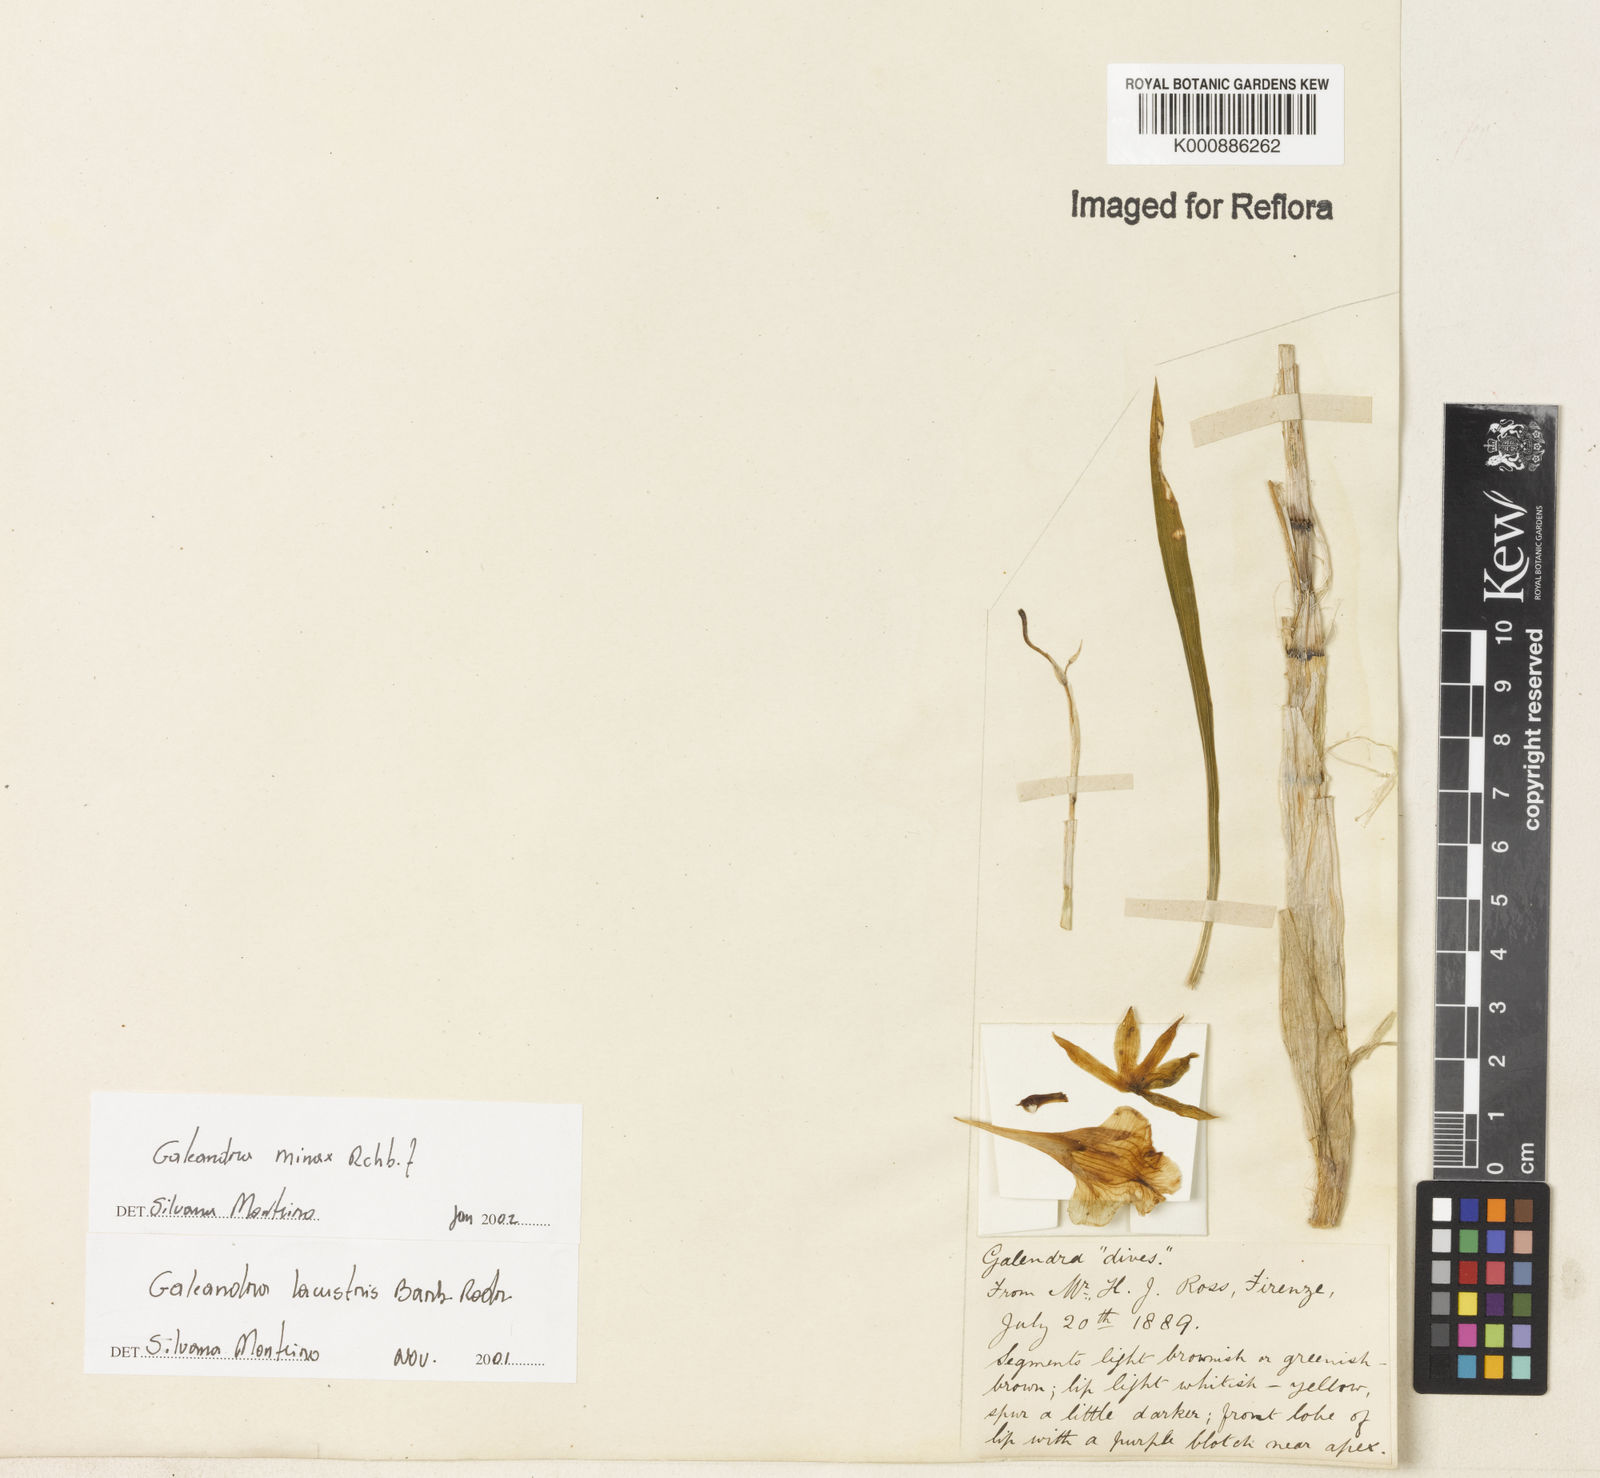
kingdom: Plantae
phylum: Tracheophyta
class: Liliopsida
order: Asparagales
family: Orchidaceae
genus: Galeandra
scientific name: Galeandra minax
